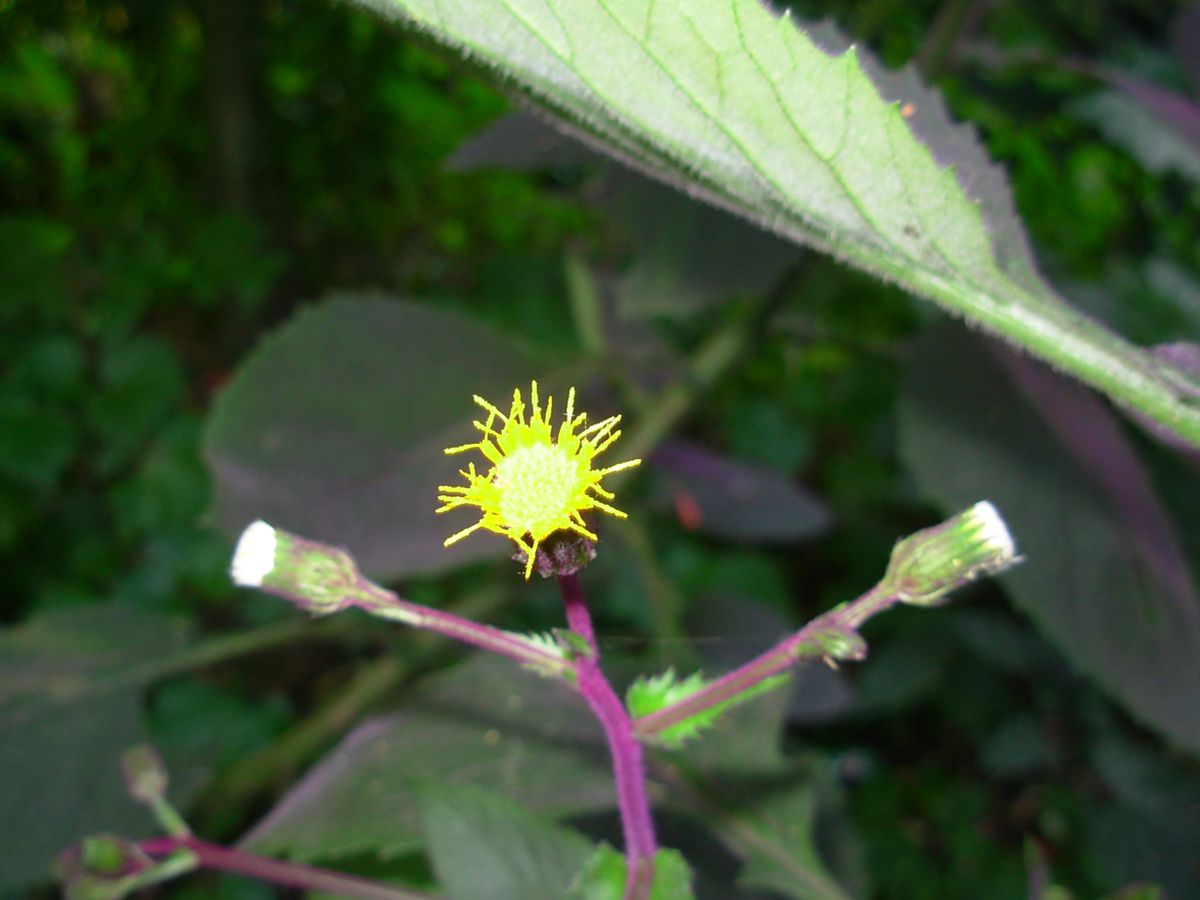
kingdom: Plantae
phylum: Tracheophyta
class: Magnoliopsida
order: Asterales
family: Asteraceae
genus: Gynura
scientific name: Gynura aurantiaca
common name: Velvetplant
